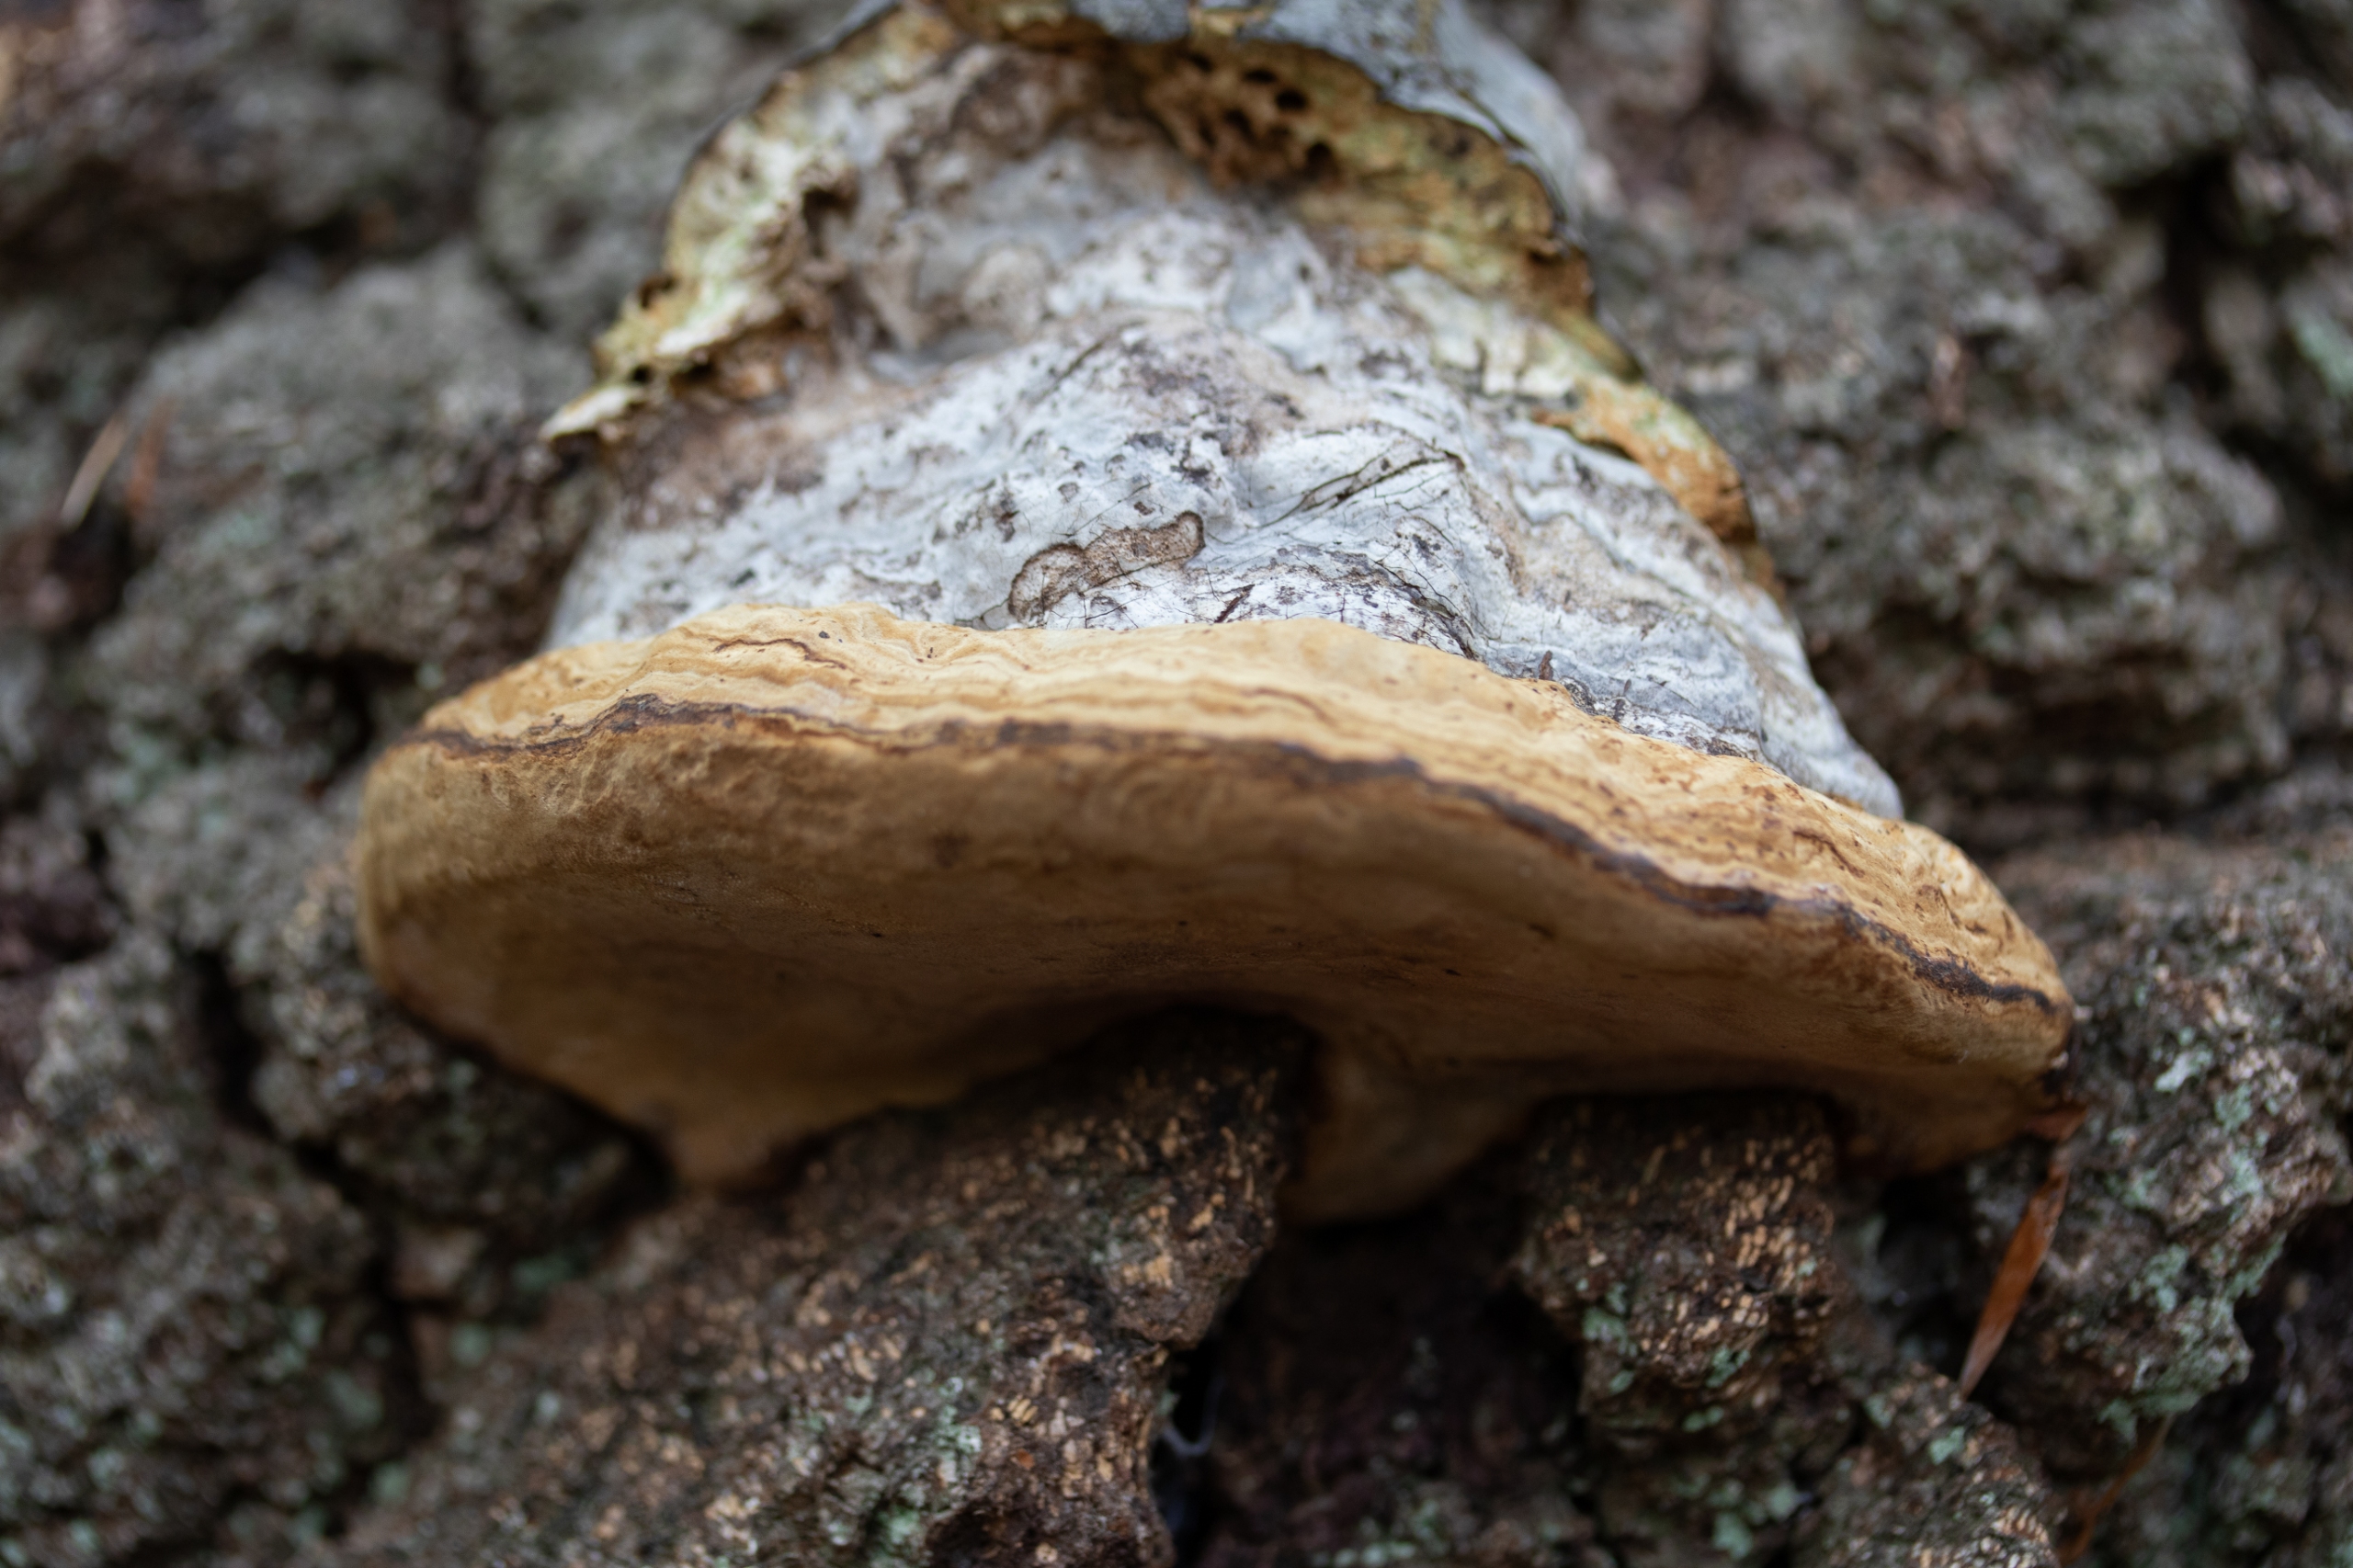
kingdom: Fungi
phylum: Basidiomycota
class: Agaricomycetes
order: Polyporales
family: Polyporaceae
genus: Fomes
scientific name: Fomes fomentarius
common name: Tøndersvamp
